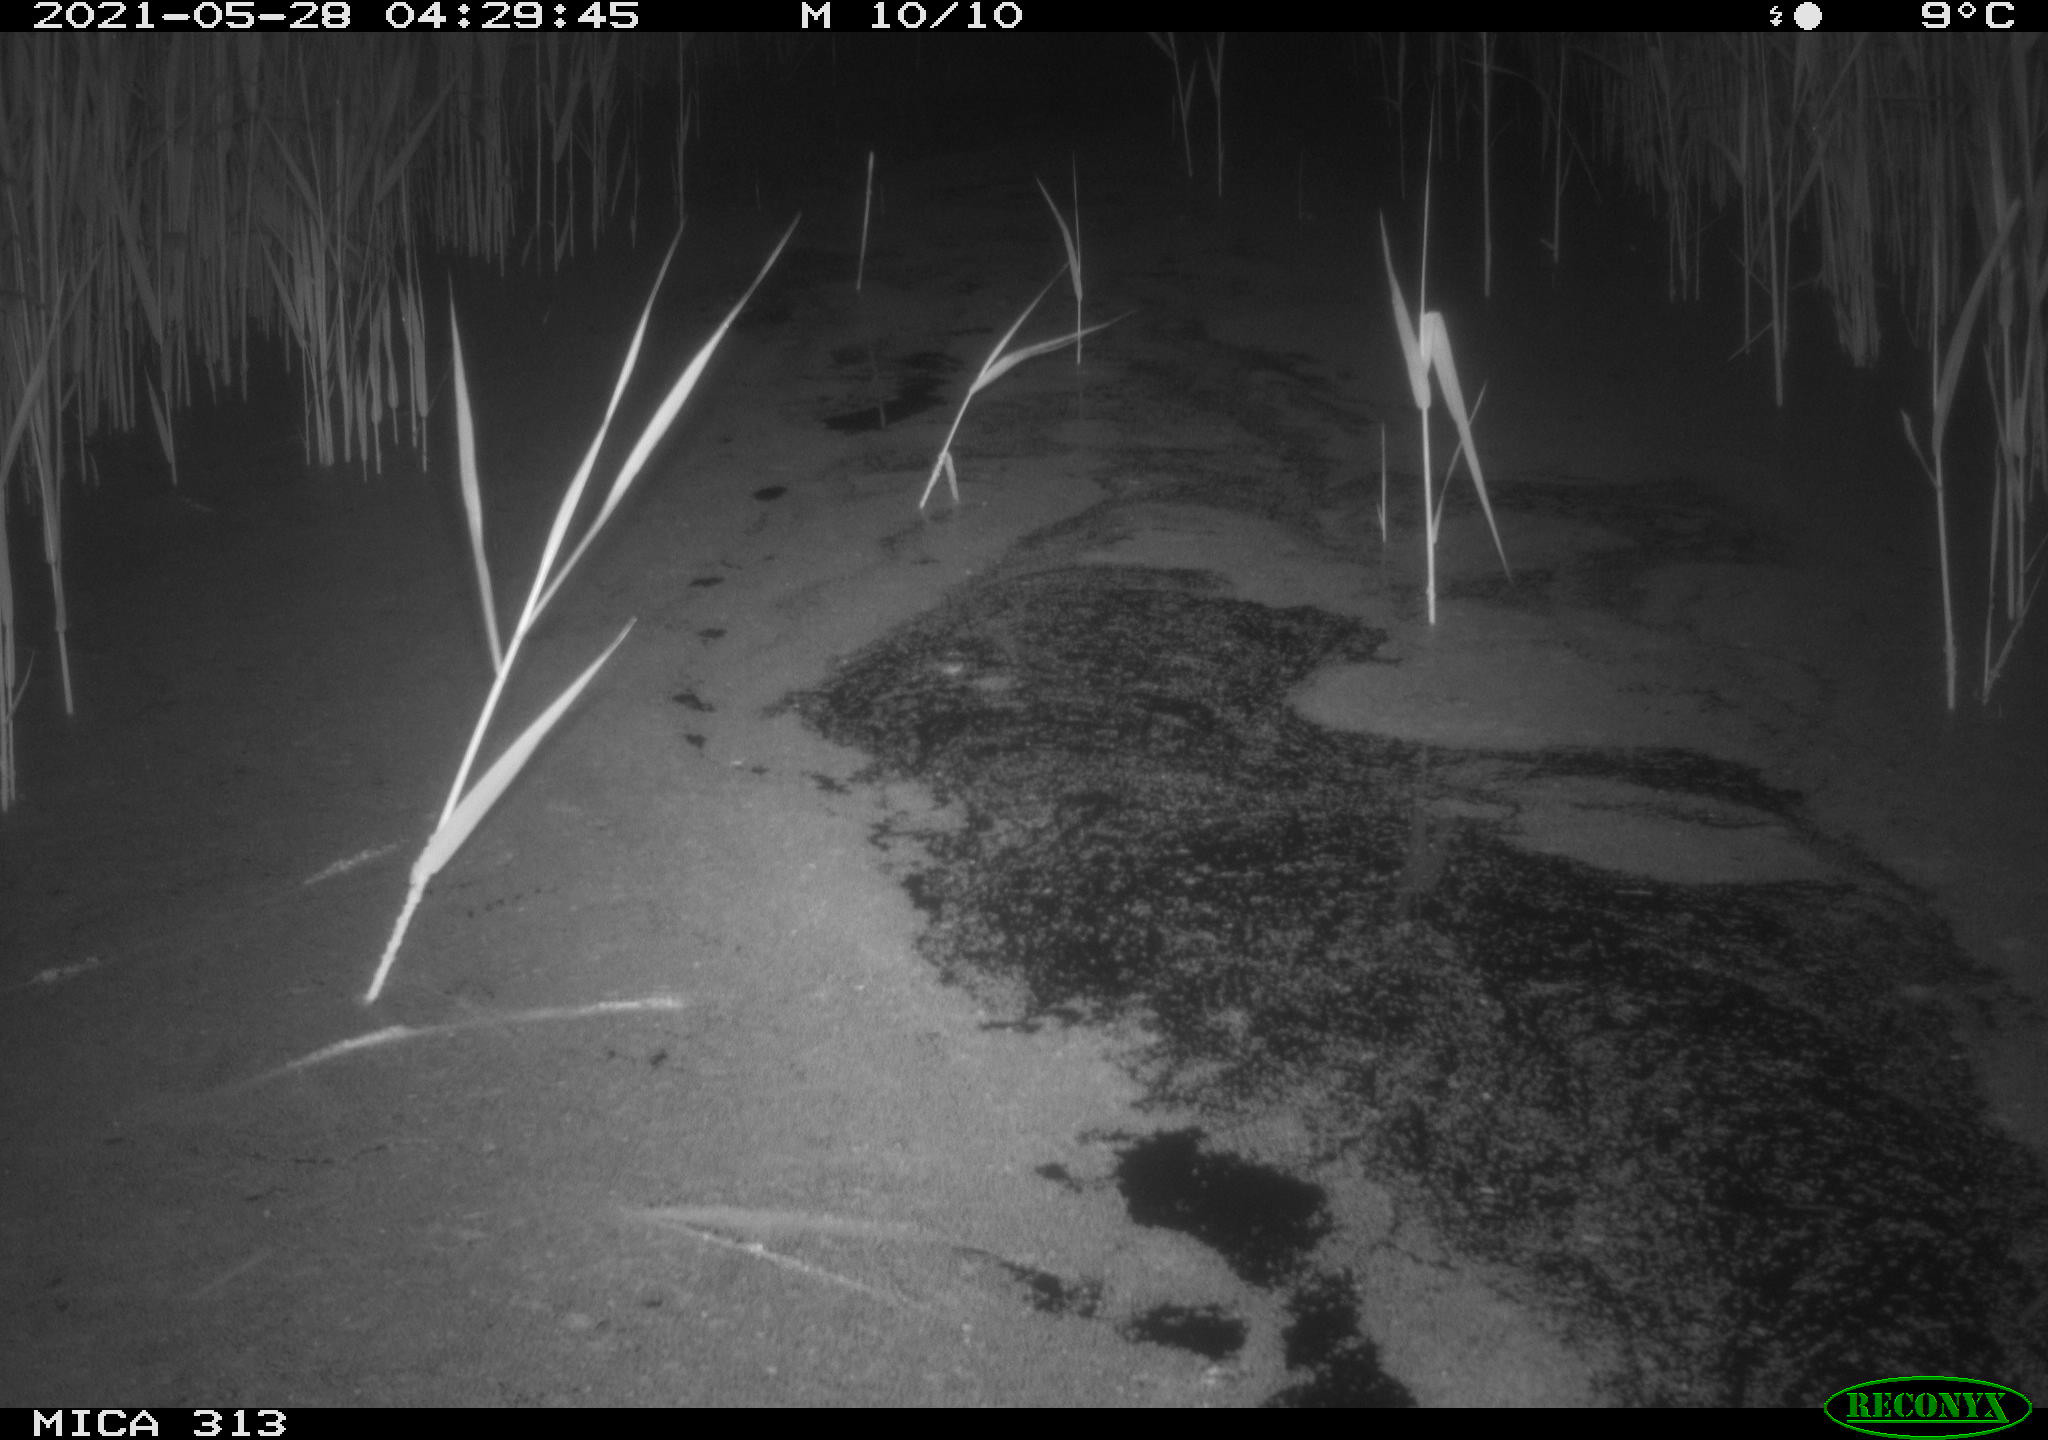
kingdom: Animalia
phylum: Chordata
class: Aves
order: Anseriformes
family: Anatidae
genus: Anas
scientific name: Anas platyrhynchos
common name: Mallard
